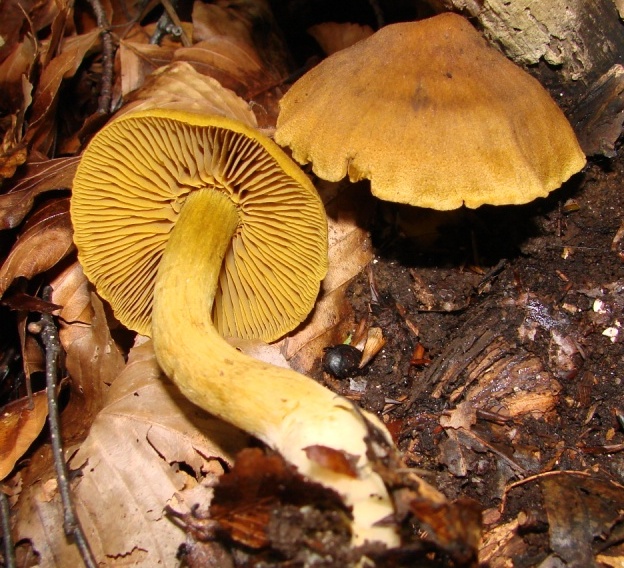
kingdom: Fungi
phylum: Basidiomycota
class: Agaricomycetes
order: Agaricales
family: Cortinariaceae
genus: Cortinarius
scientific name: Cortinarius olivaceofuscus
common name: olivenbrun slørhat
